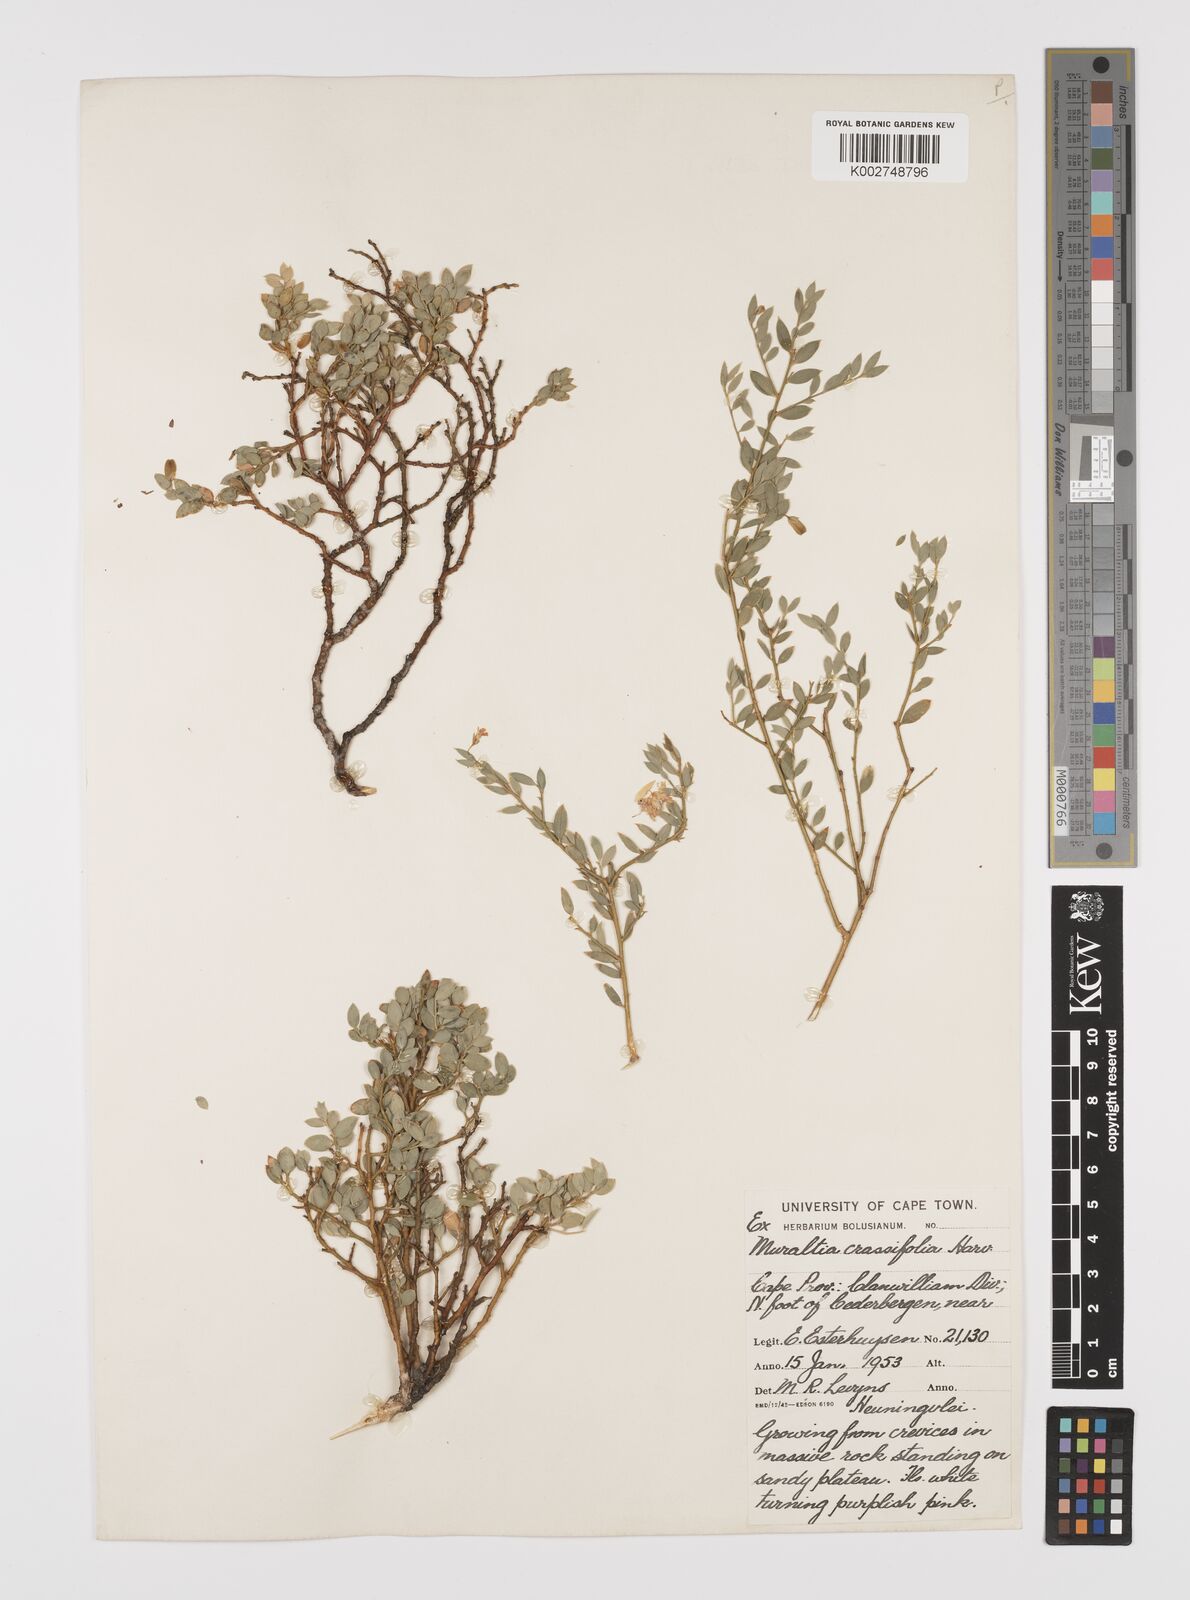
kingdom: Plantae
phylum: Tracheophyta
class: Magnoliopsida
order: Fabales
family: Polygalaceae
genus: Muraltia
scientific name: Muraltia crassifolia
